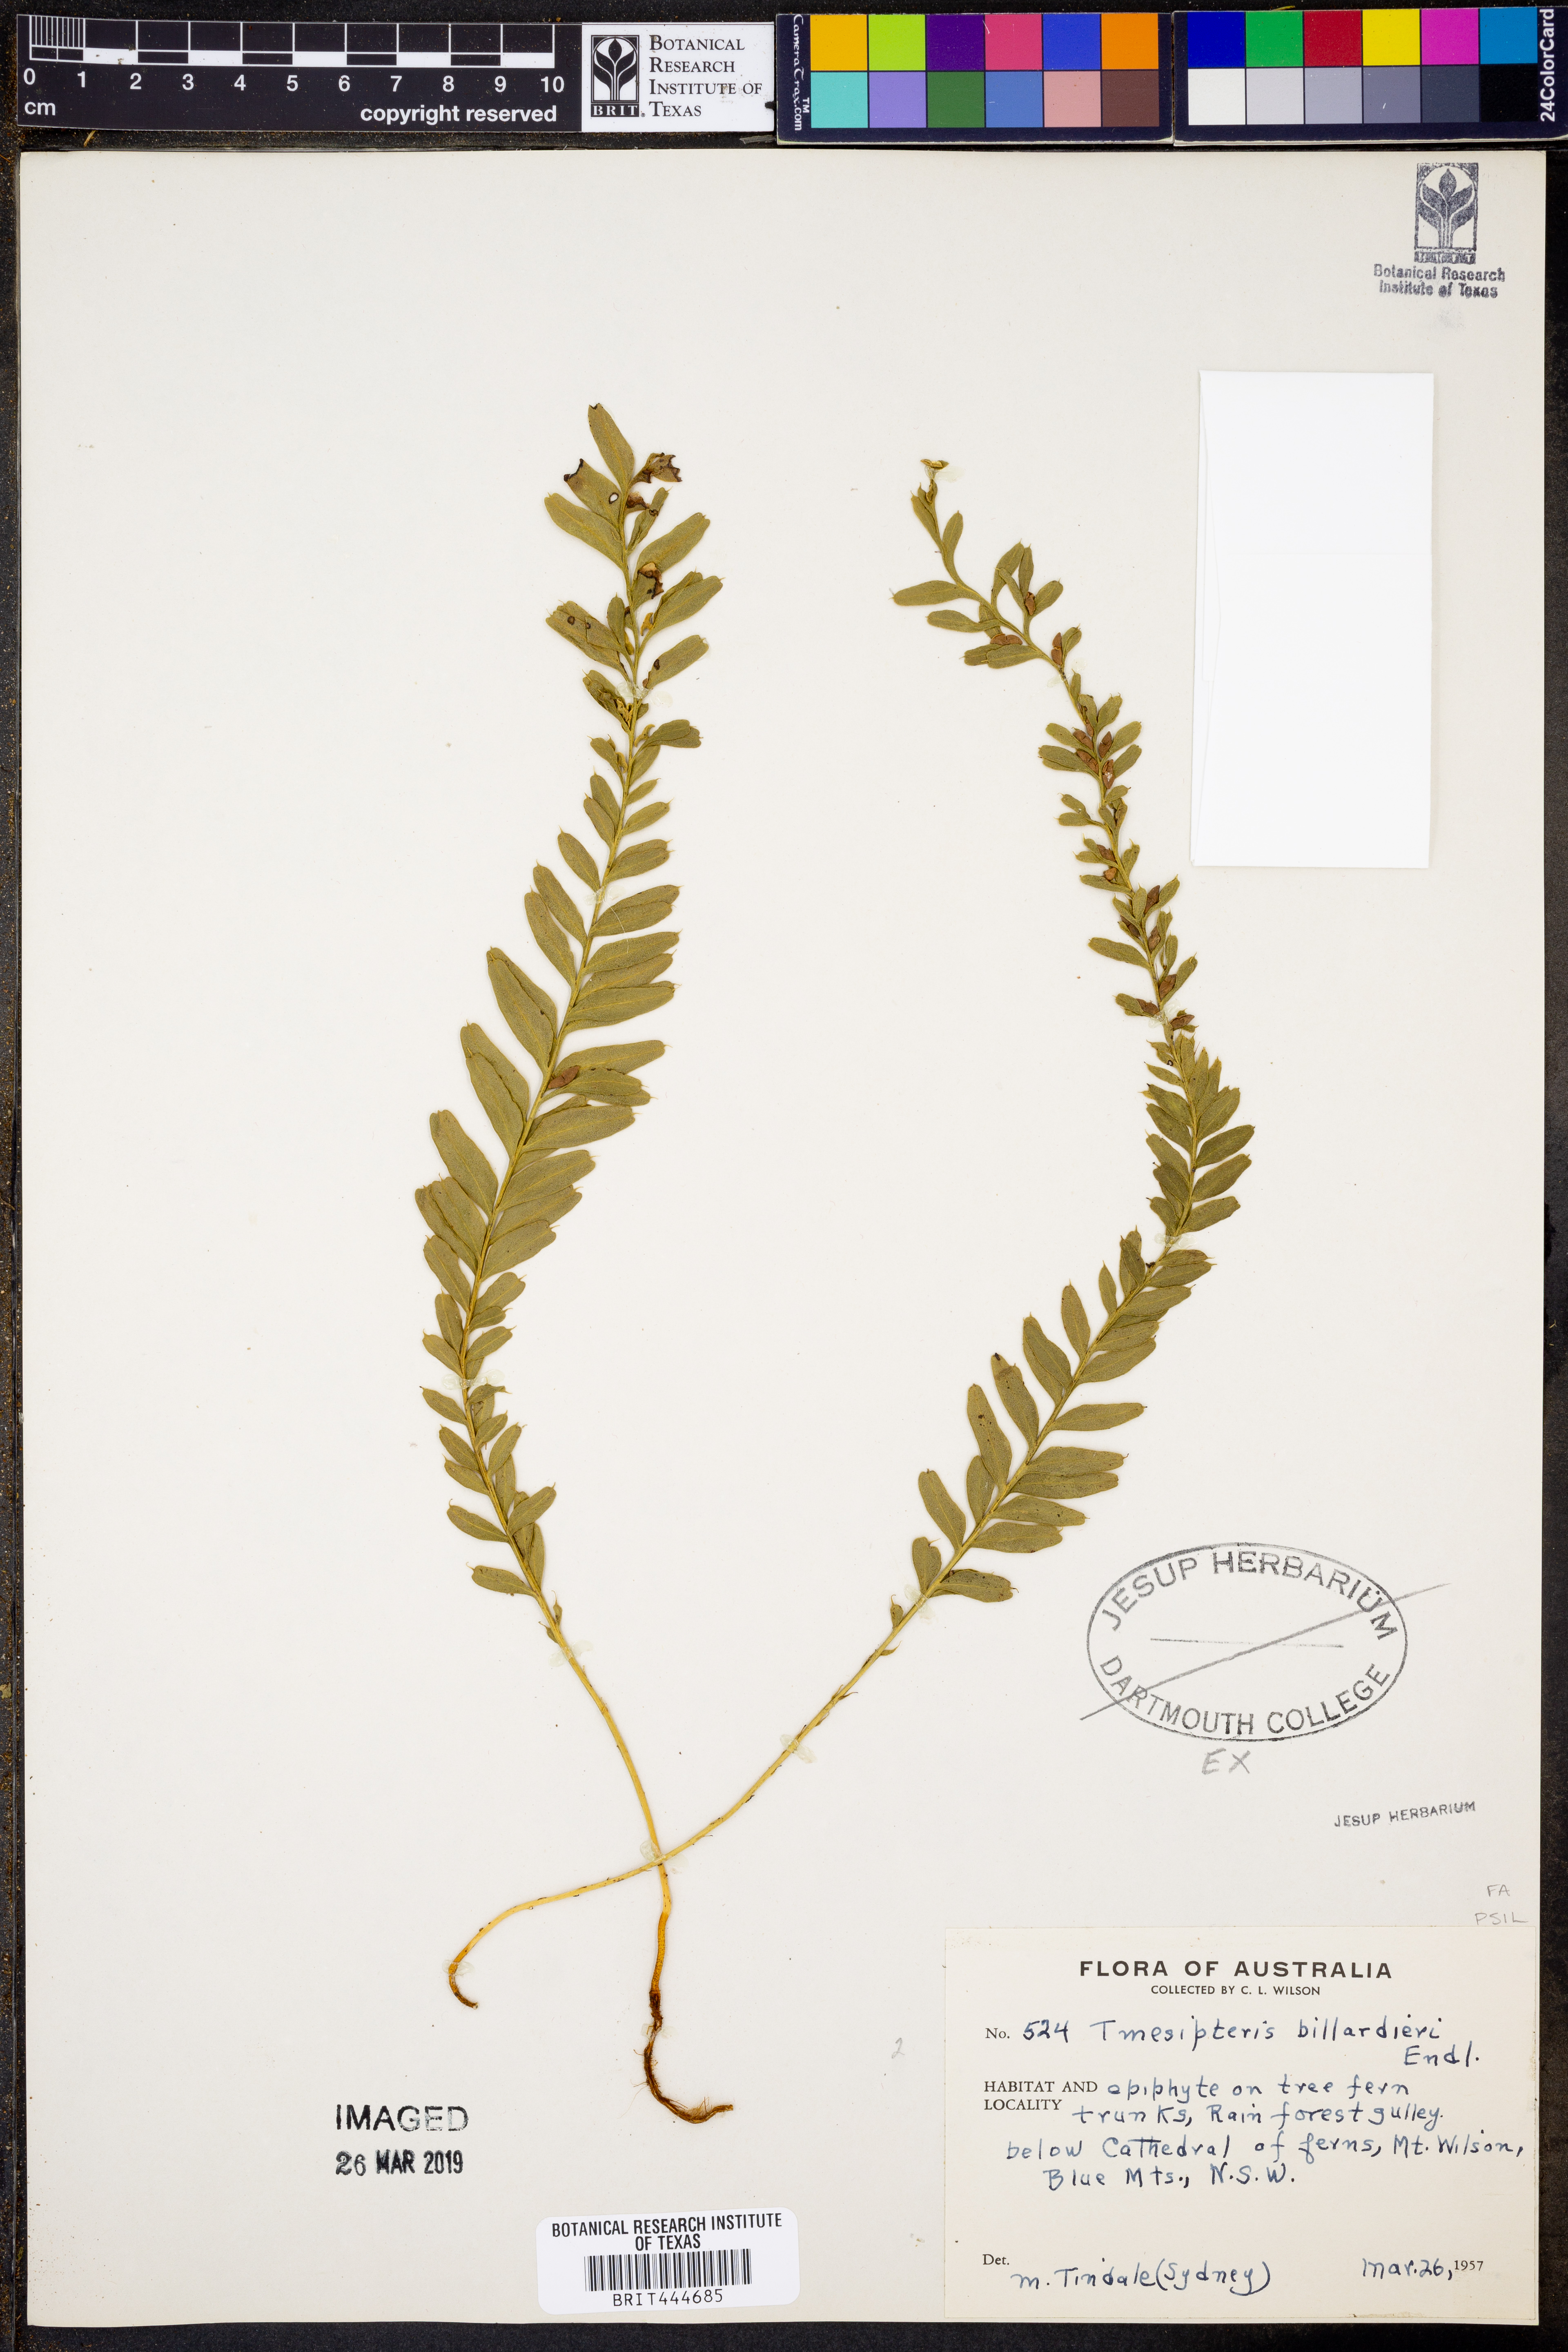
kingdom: Plantae
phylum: Tracheophyta
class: Polypodiopsida
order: Psilotales
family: Psilotaceae
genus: Tmesipteris
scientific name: Tmesipteris obliqua
